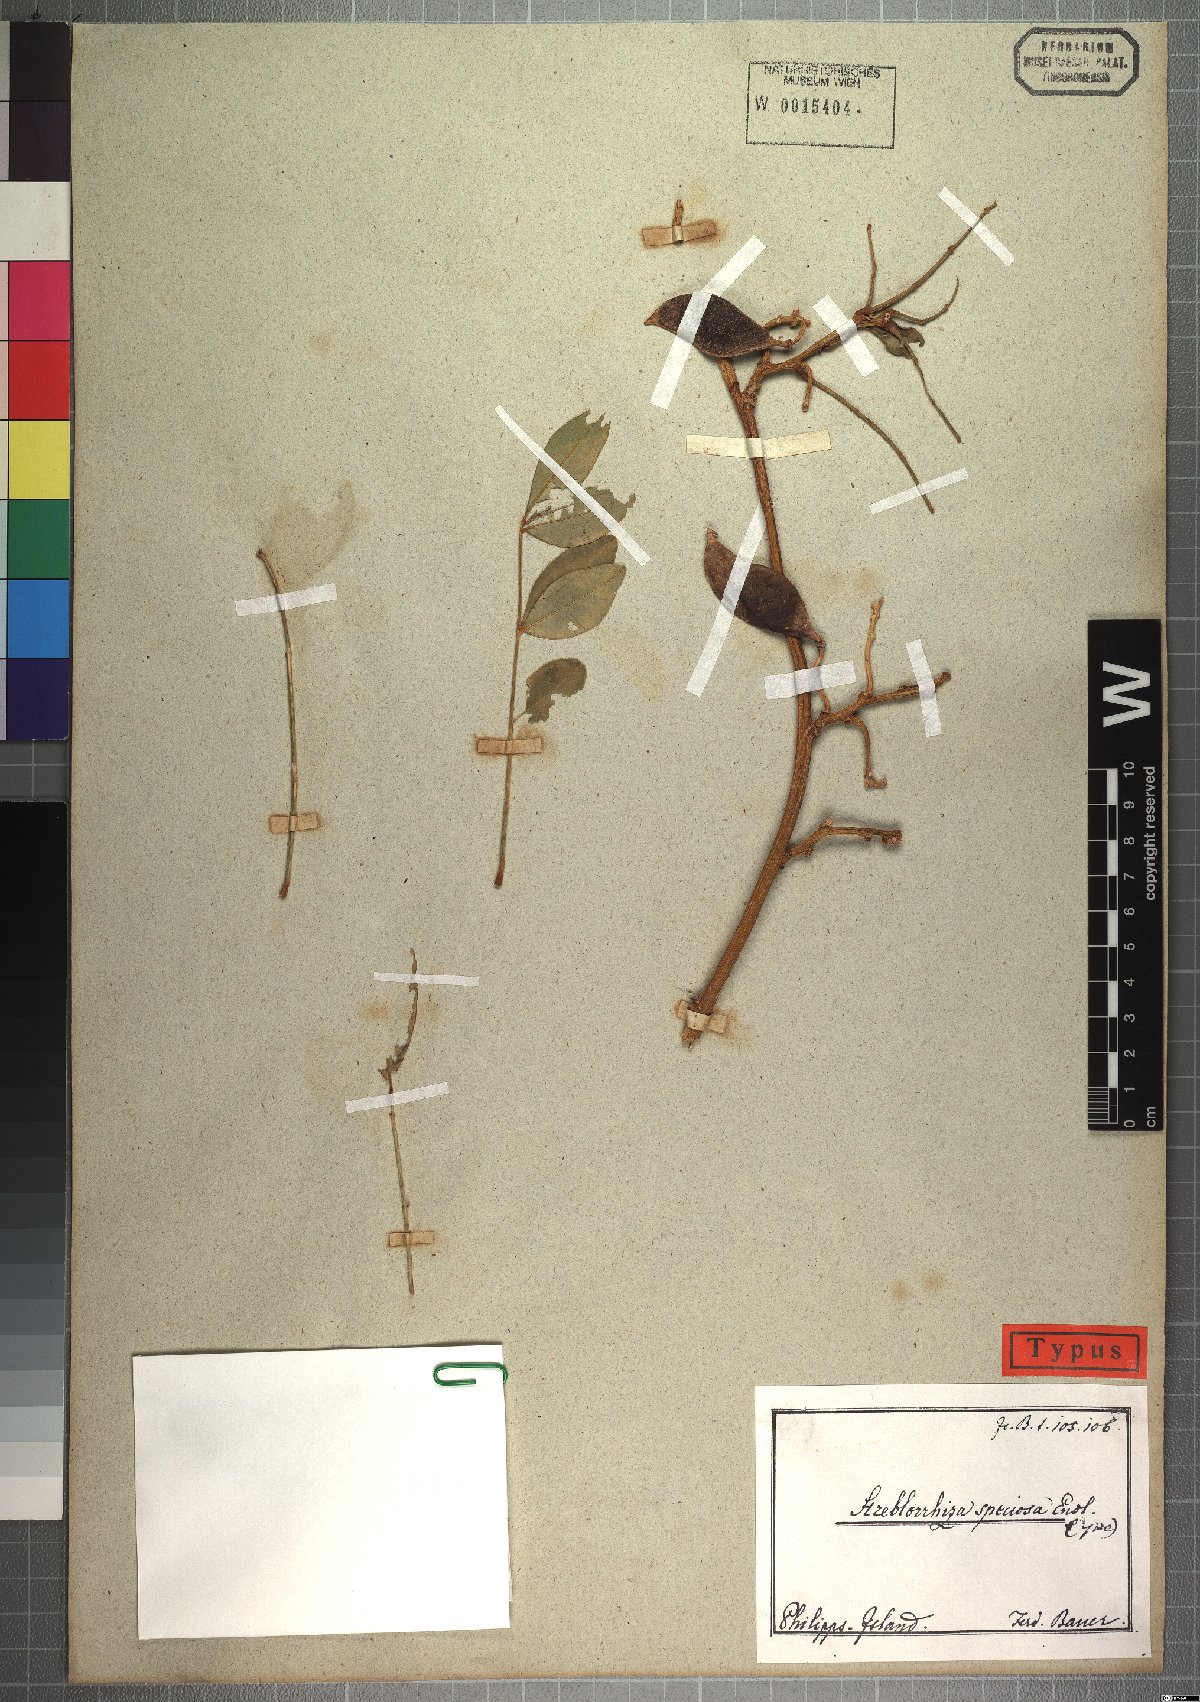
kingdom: Plantae
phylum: Tracheophyta
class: Magnoliopsida
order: Fabales
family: Fabaceae
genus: Streblorrhiza
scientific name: Streblorrhiza speciosa
